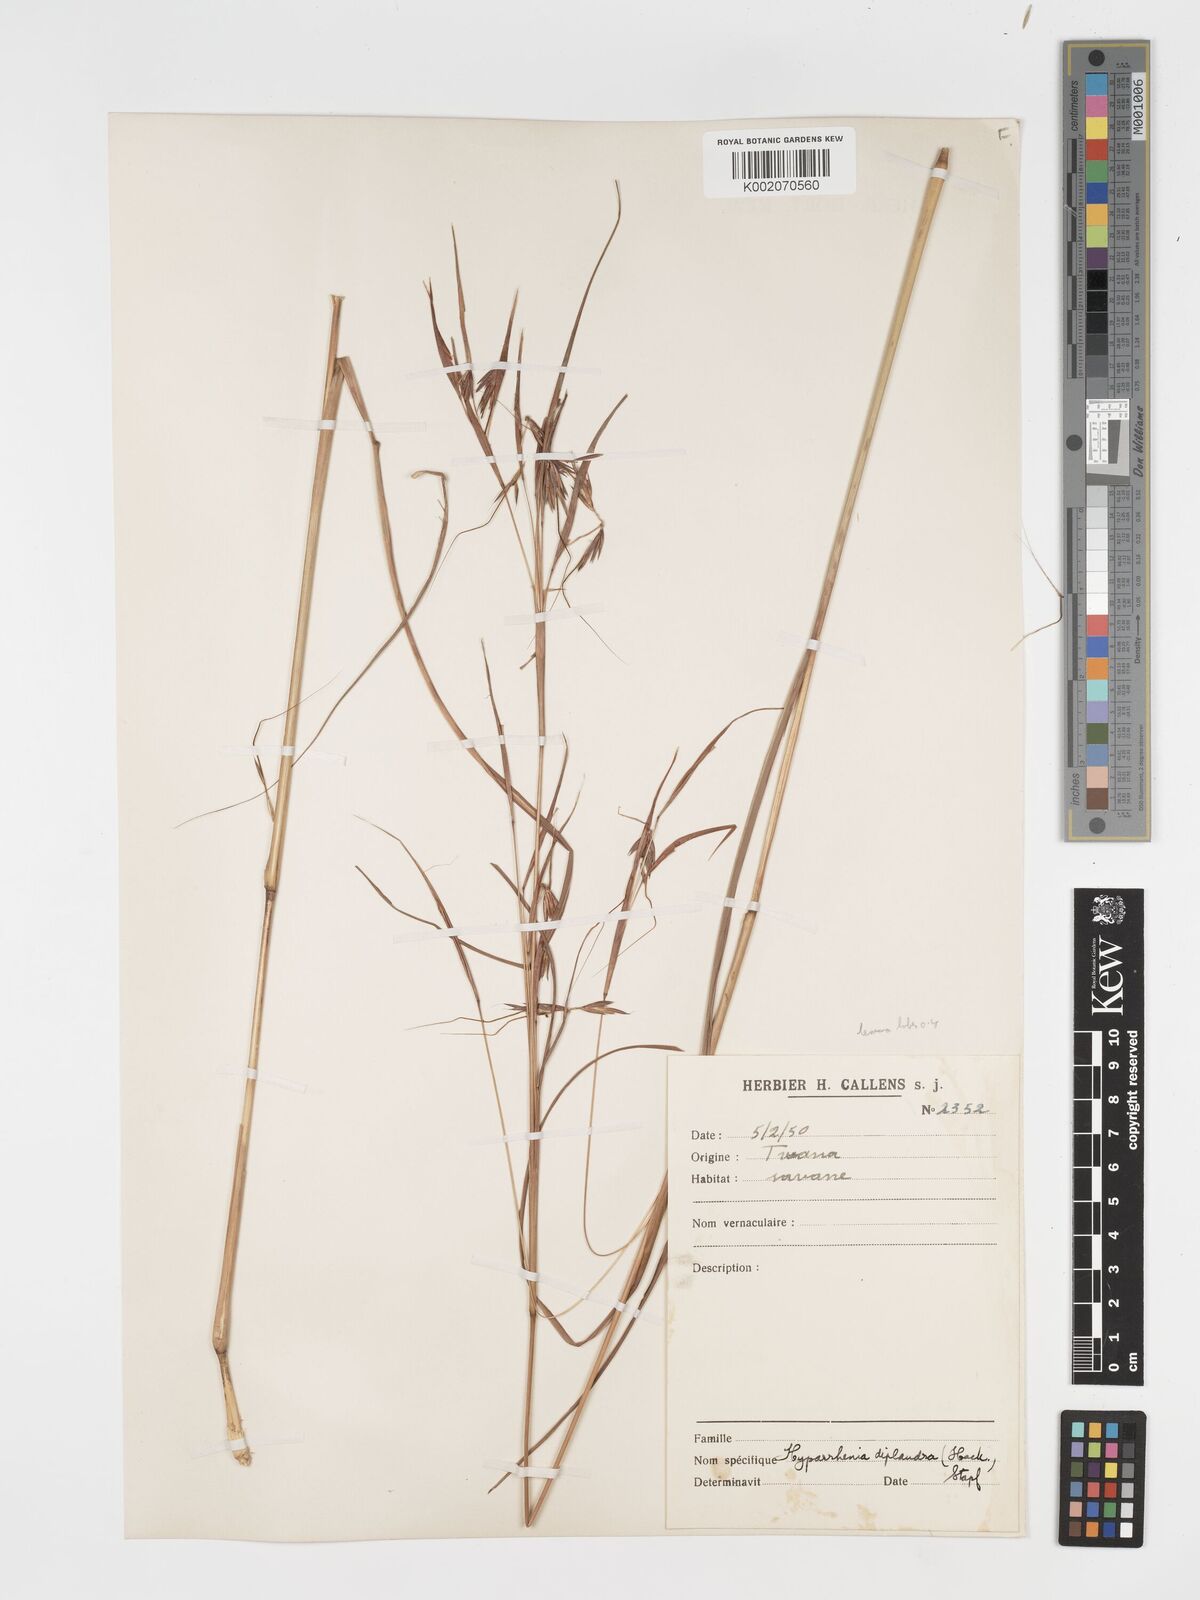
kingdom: Plantae
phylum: Tracheophyta
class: Liliopsida
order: Poales
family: Poaceae
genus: Hyparrhenia
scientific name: Hyparrhenia diplandra
